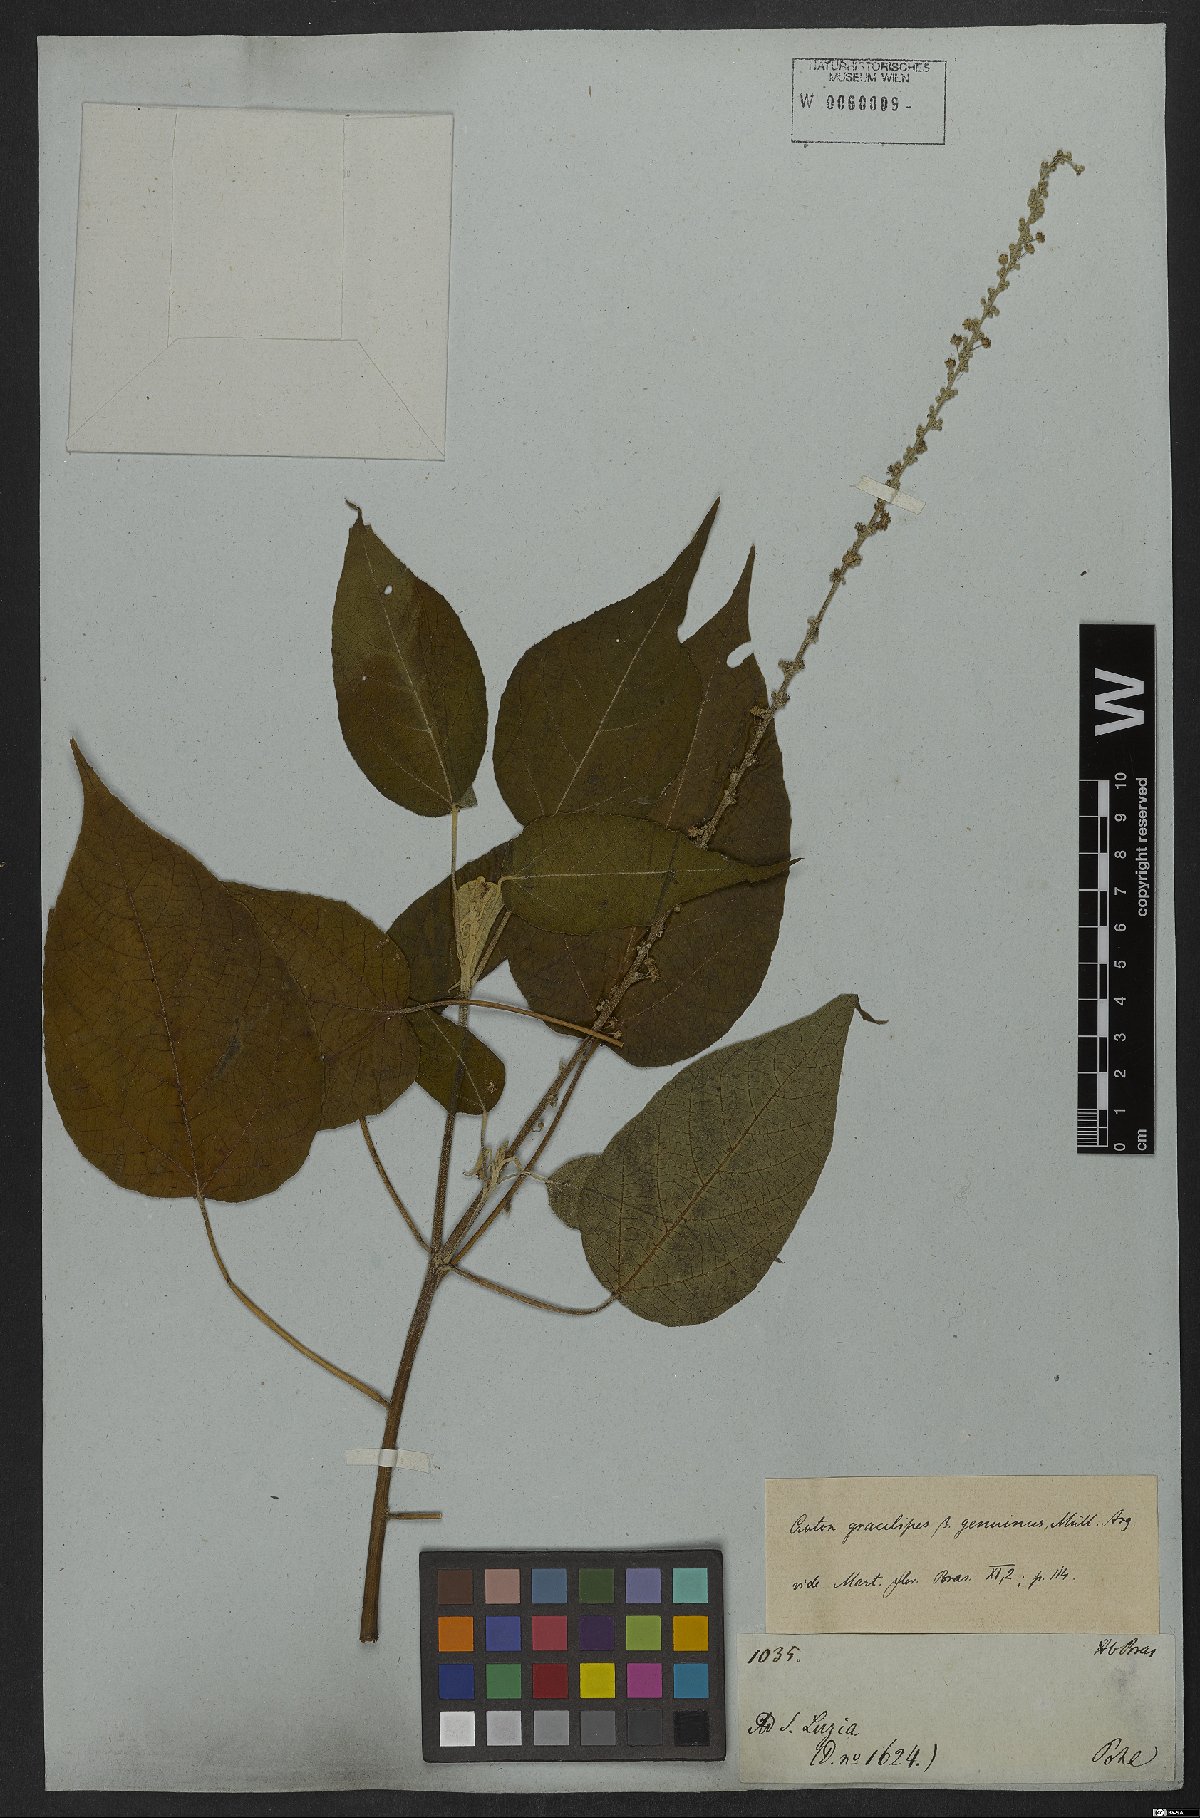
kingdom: Plantae
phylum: Tracheophyta
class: Magnoliopsida
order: Malpighiales
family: Euphorbiaceae
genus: Croton
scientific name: Croton gracilipes
